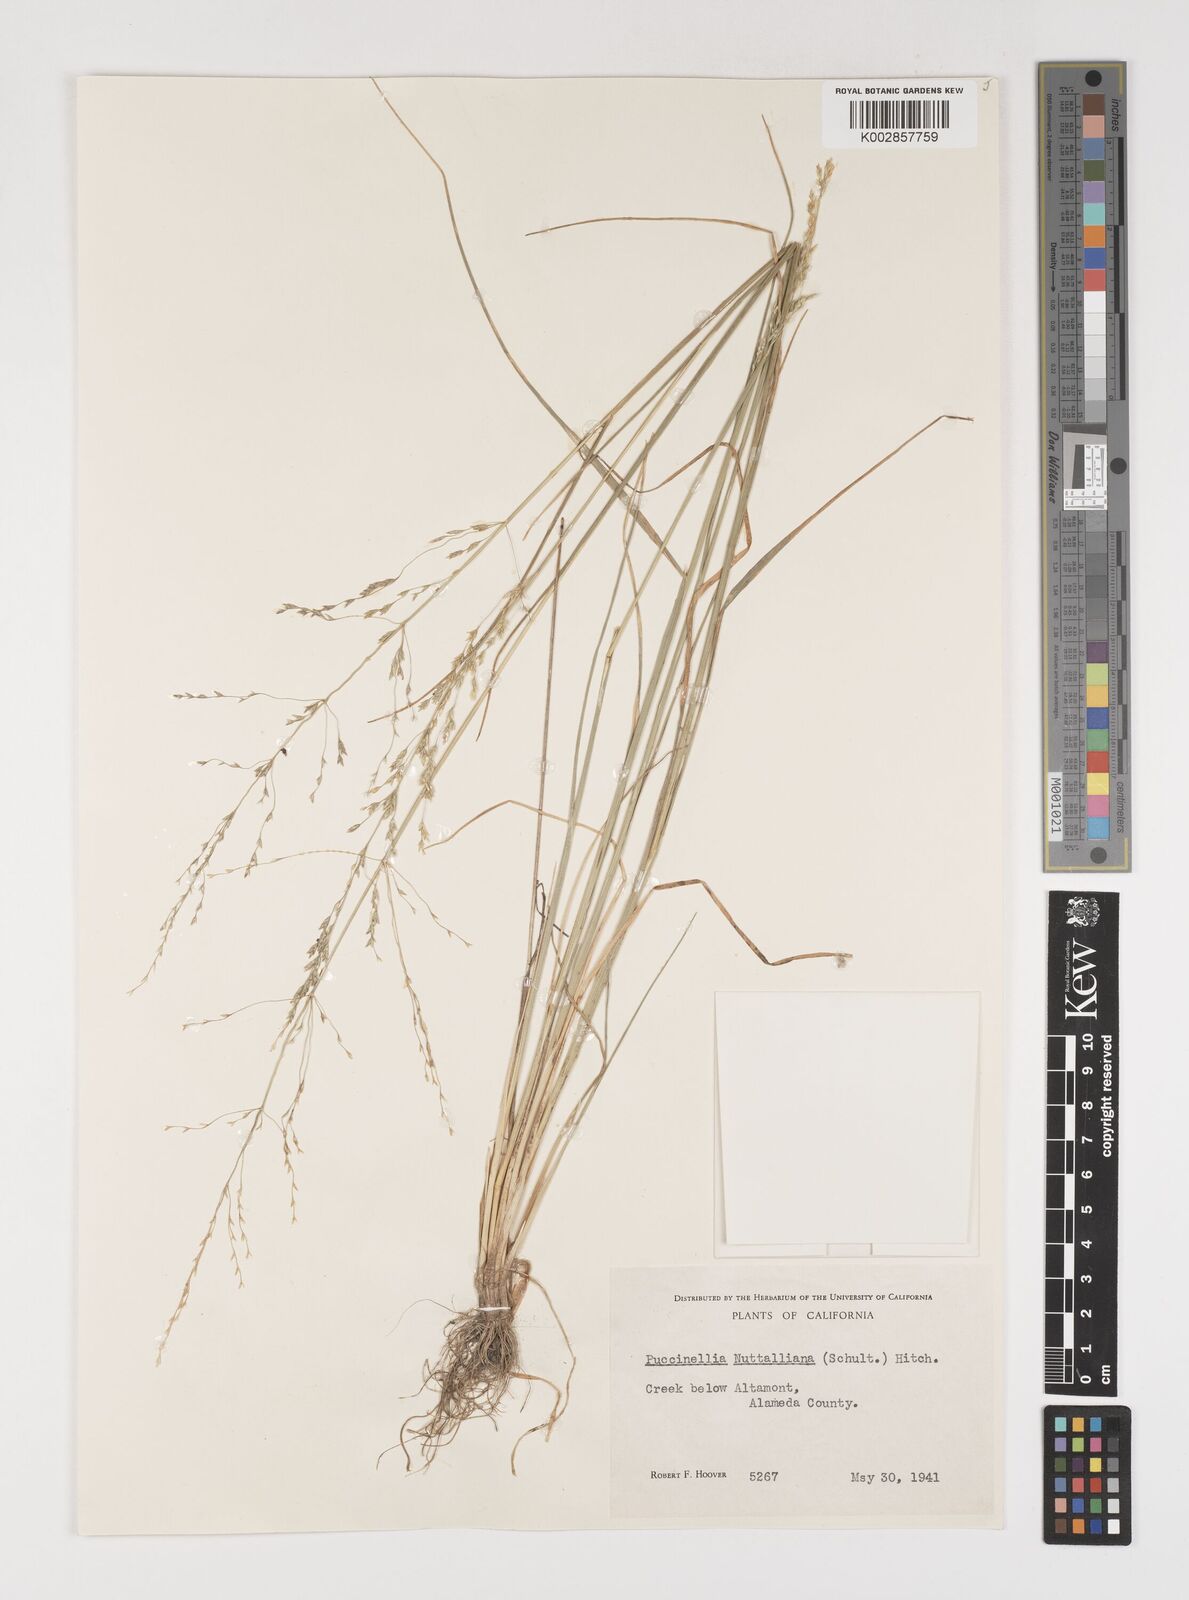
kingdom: Plantae
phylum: Tracheophyta
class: Liliopsida
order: Poales
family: Poaceae
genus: Puccinellia
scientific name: Puccinellia nuttalliana
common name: Nuttall's alkali grass
